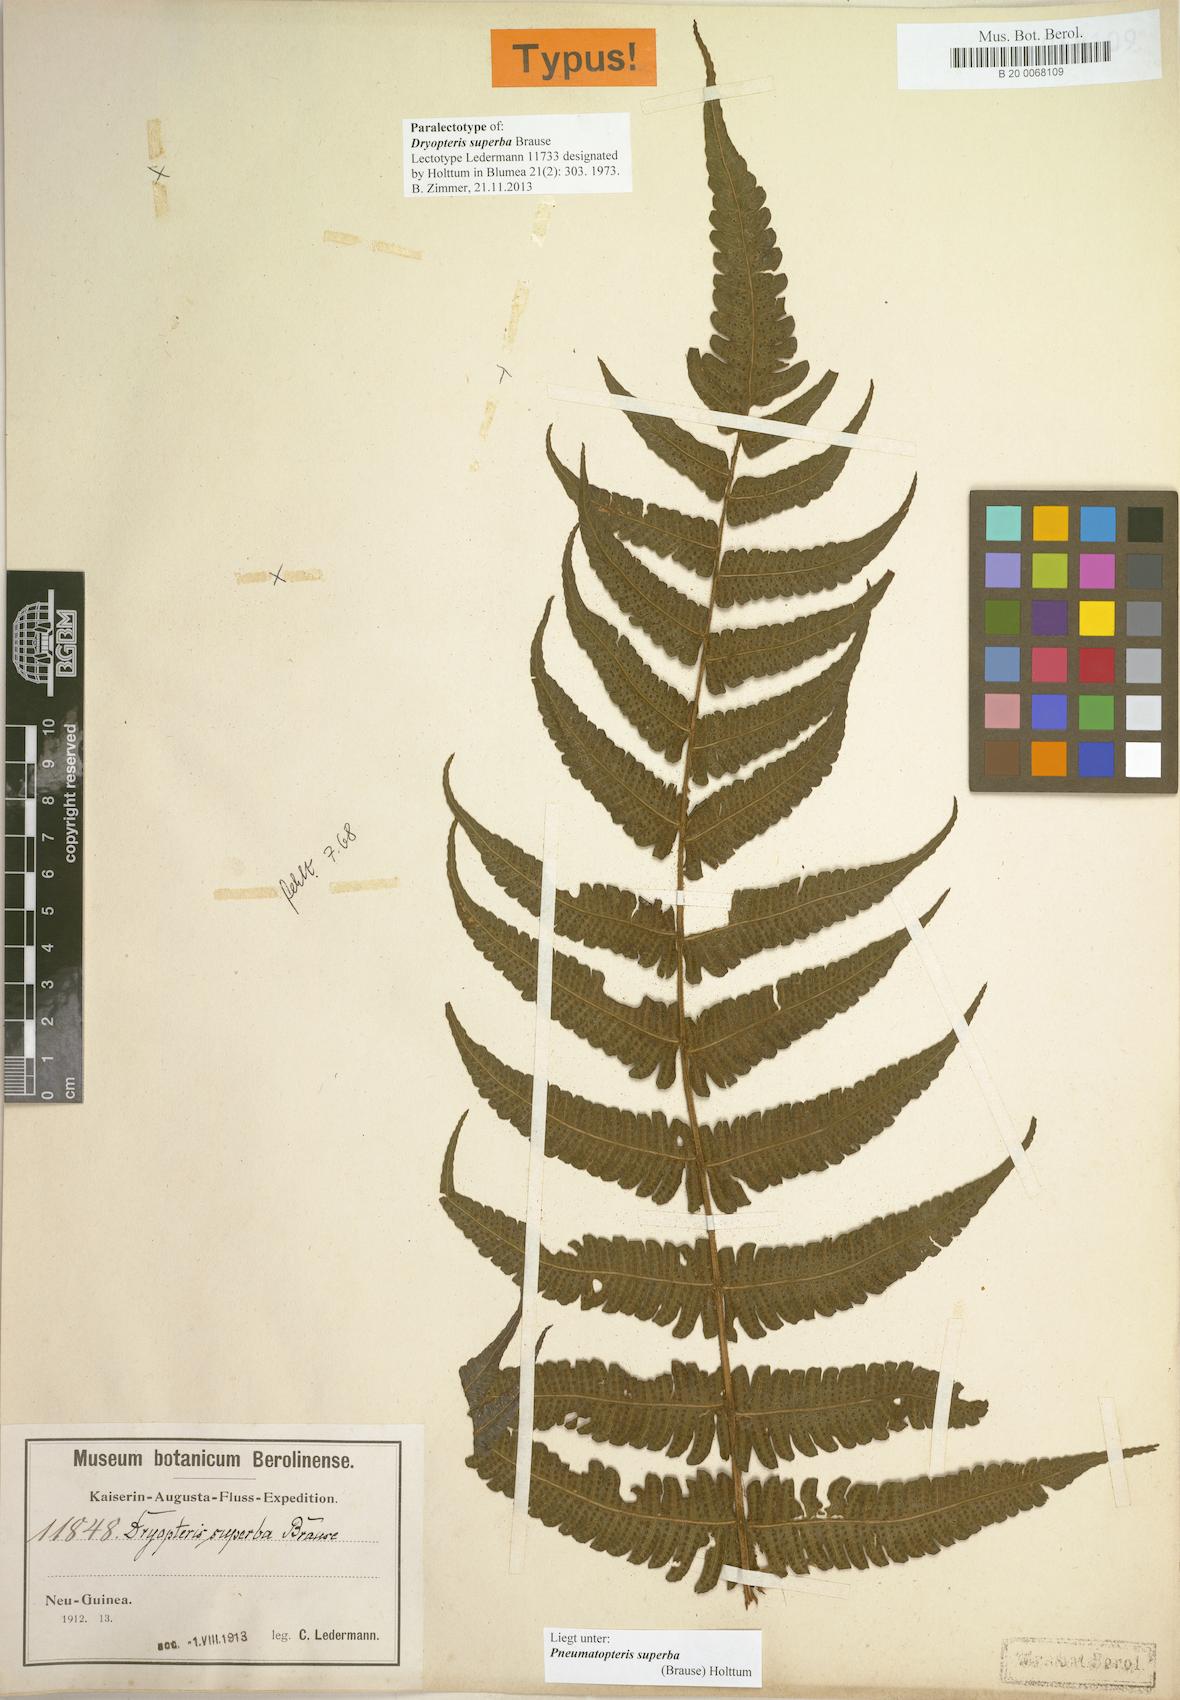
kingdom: Plantae
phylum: Tracheophyta
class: Polypodiopsida
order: Polypodiales
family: Thelypteridaceae
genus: Sphaerostephanos
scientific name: Sphaerostephanos superbus
